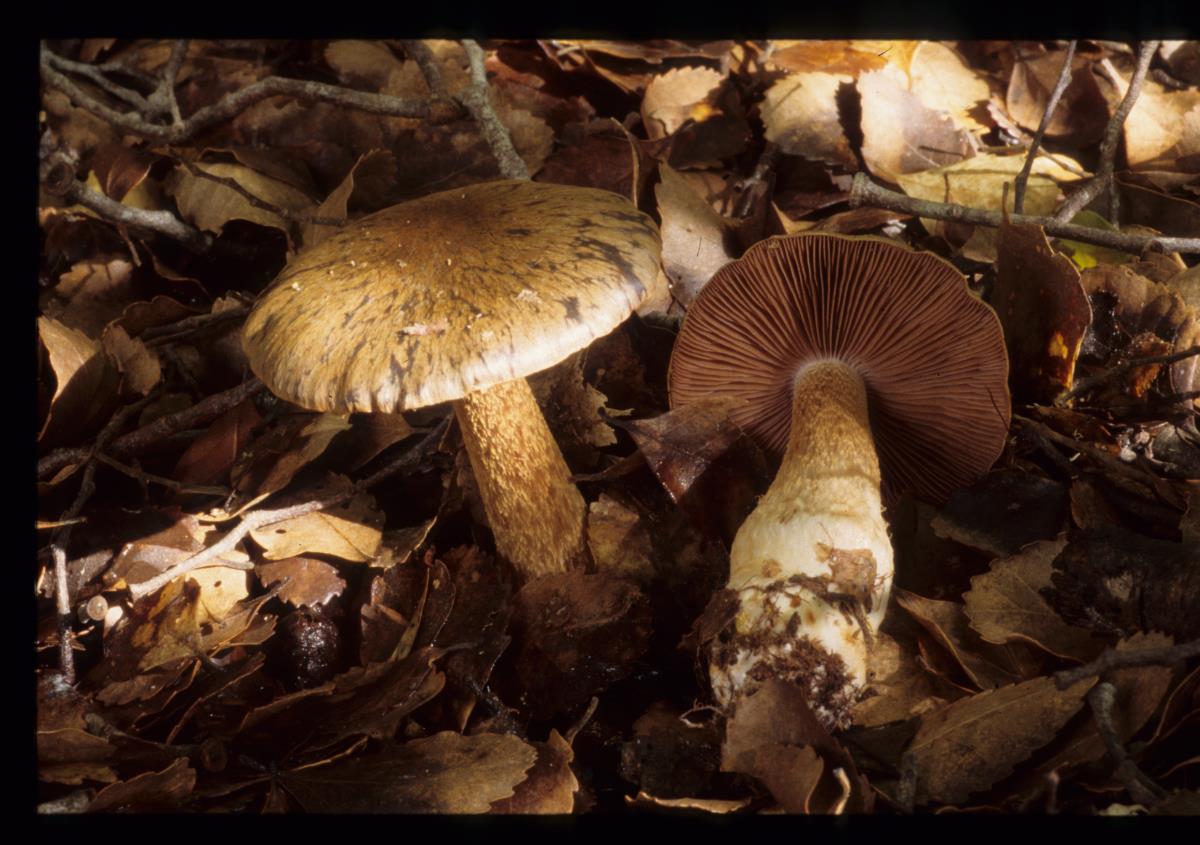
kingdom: Fungi
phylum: Basidiomycota
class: Agaricomycetes
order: Agaricales
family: Cortinariaceae
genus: Cortinarius
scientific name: Cortinarius
